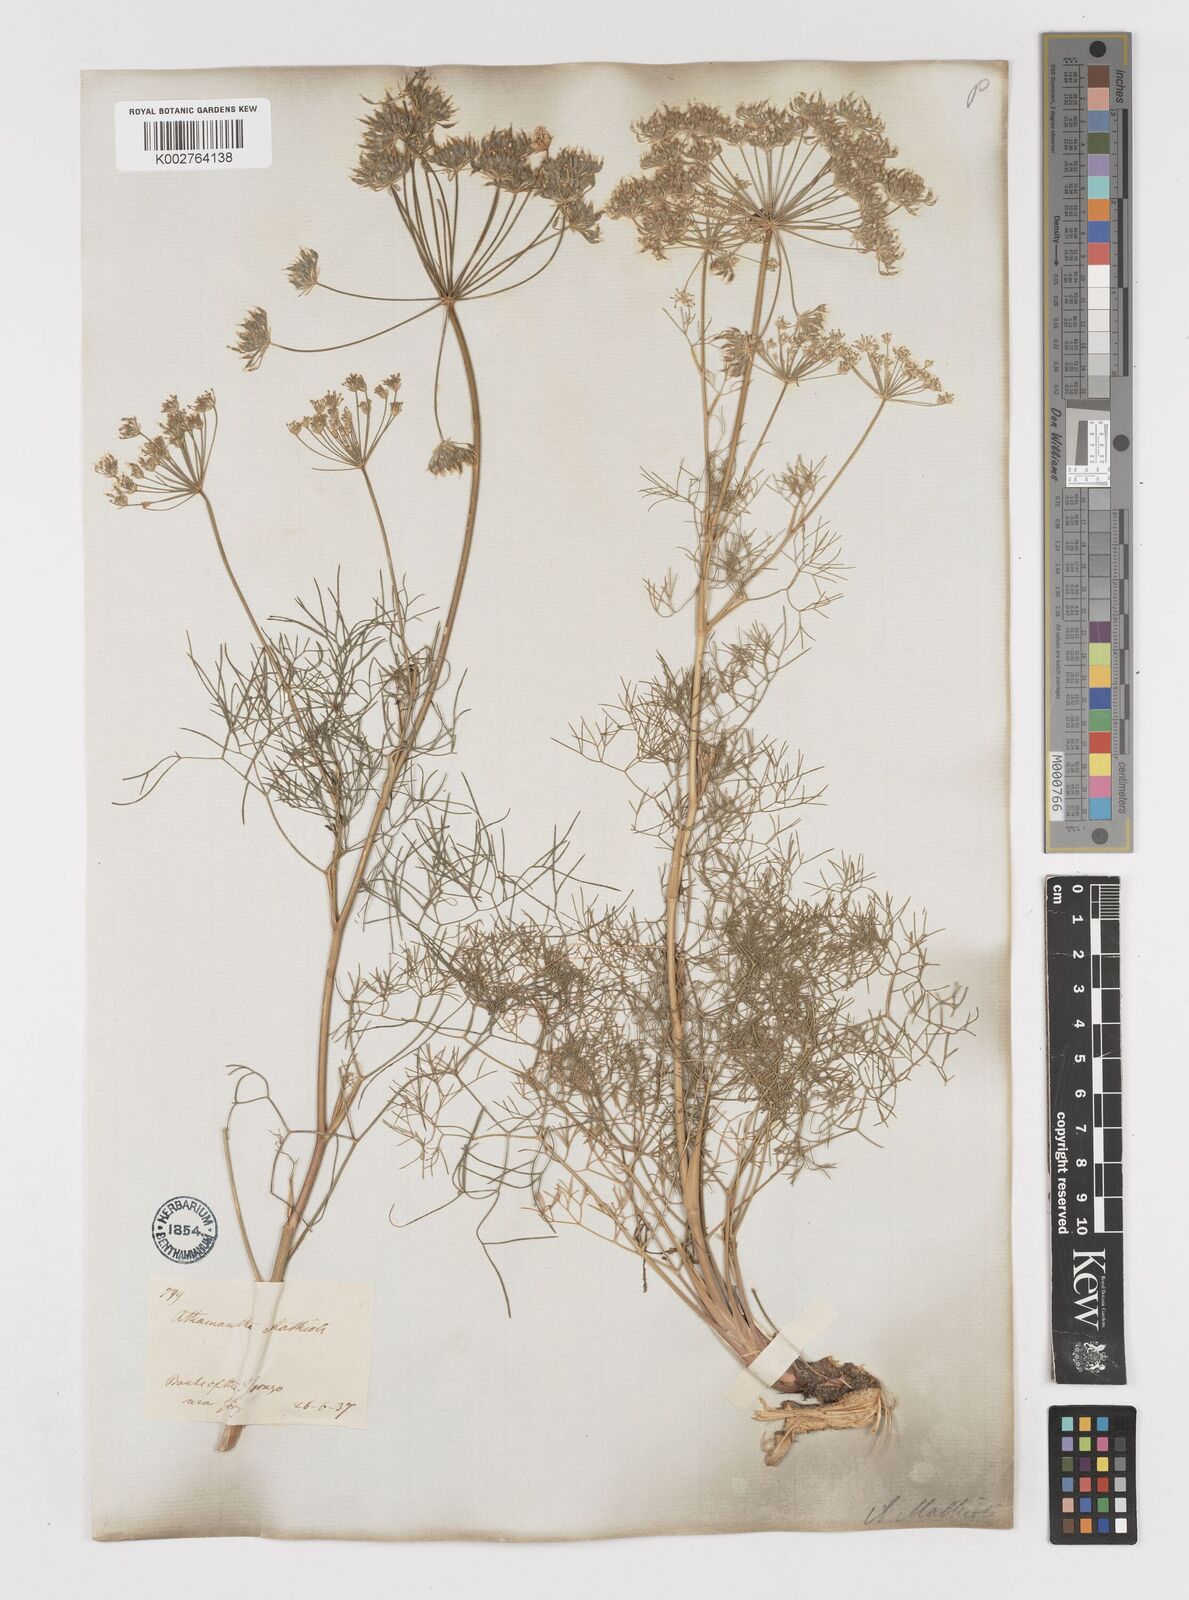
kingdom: Plantae
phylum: Tracheophyta
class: Magnoliopsida
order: Apiales
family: Apiaceae
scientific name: Apiaceae
